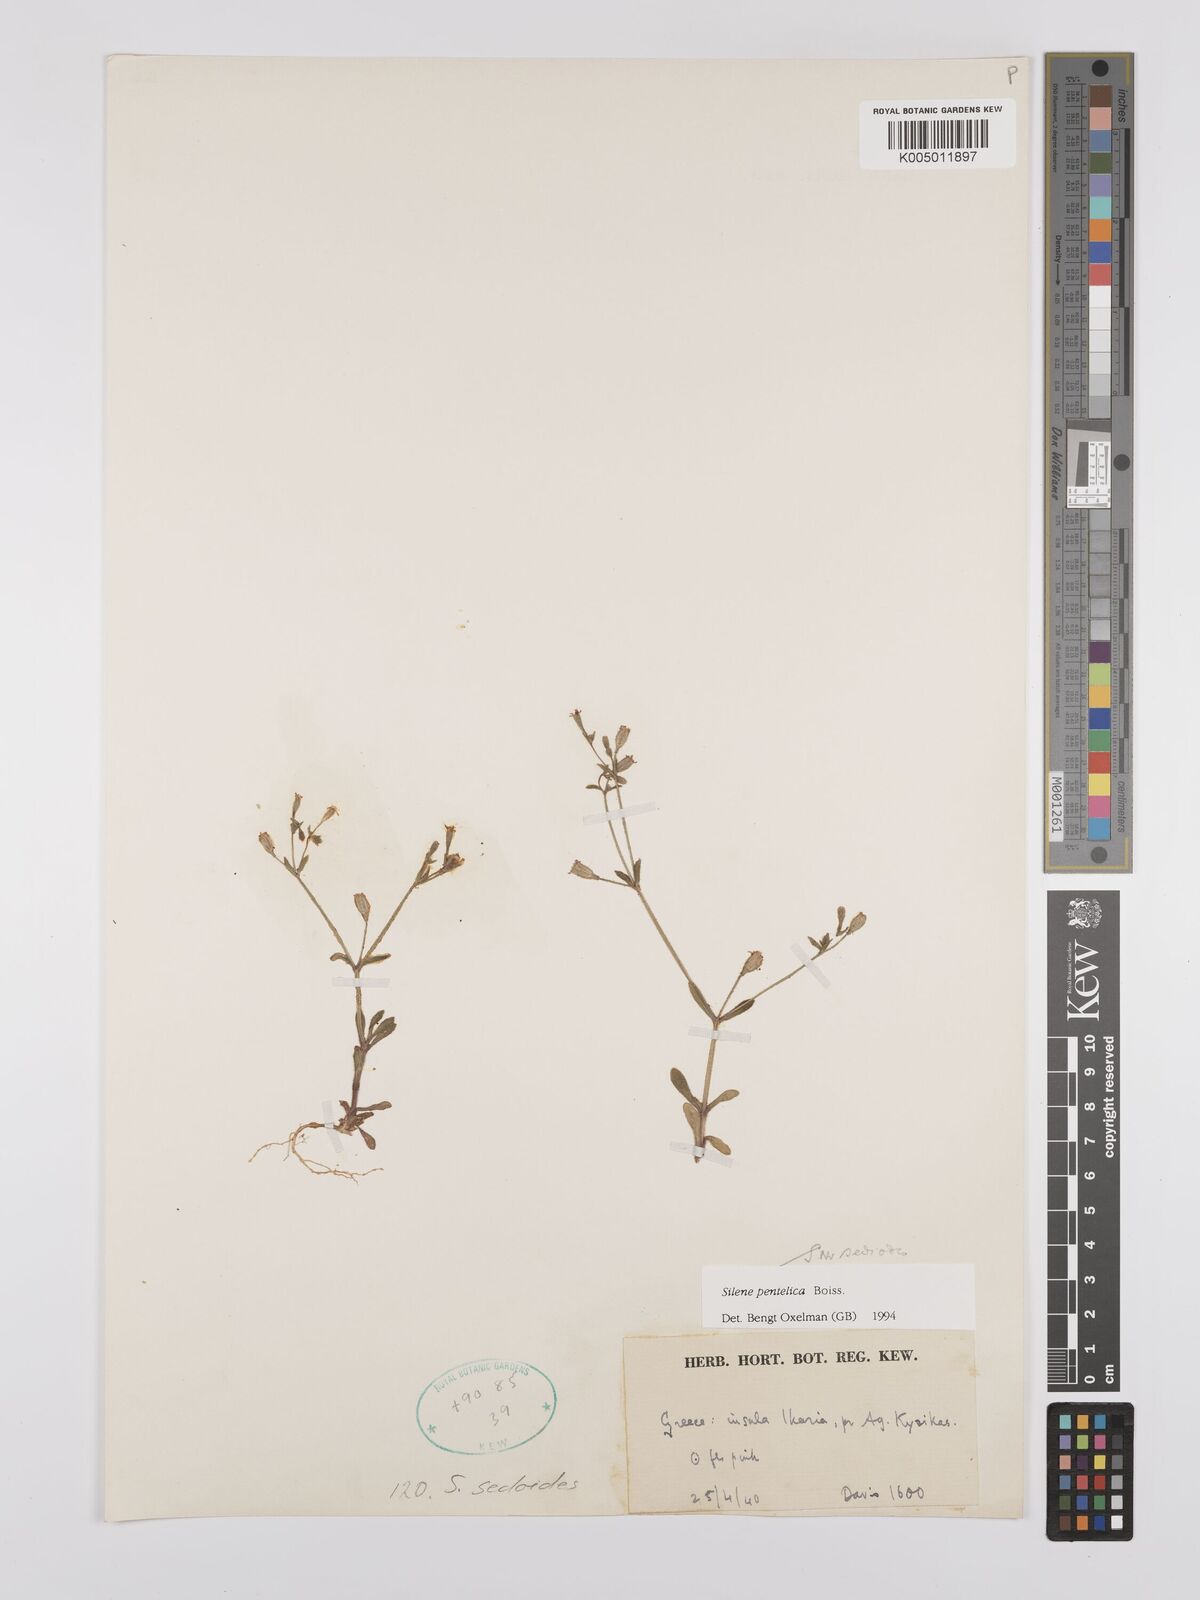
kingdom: Plantae
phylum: Tracheophyta
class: Magnoliopsida
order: Caryophyllales
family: Caryophyllaceae
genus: Silene
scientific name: Silene pentelica
